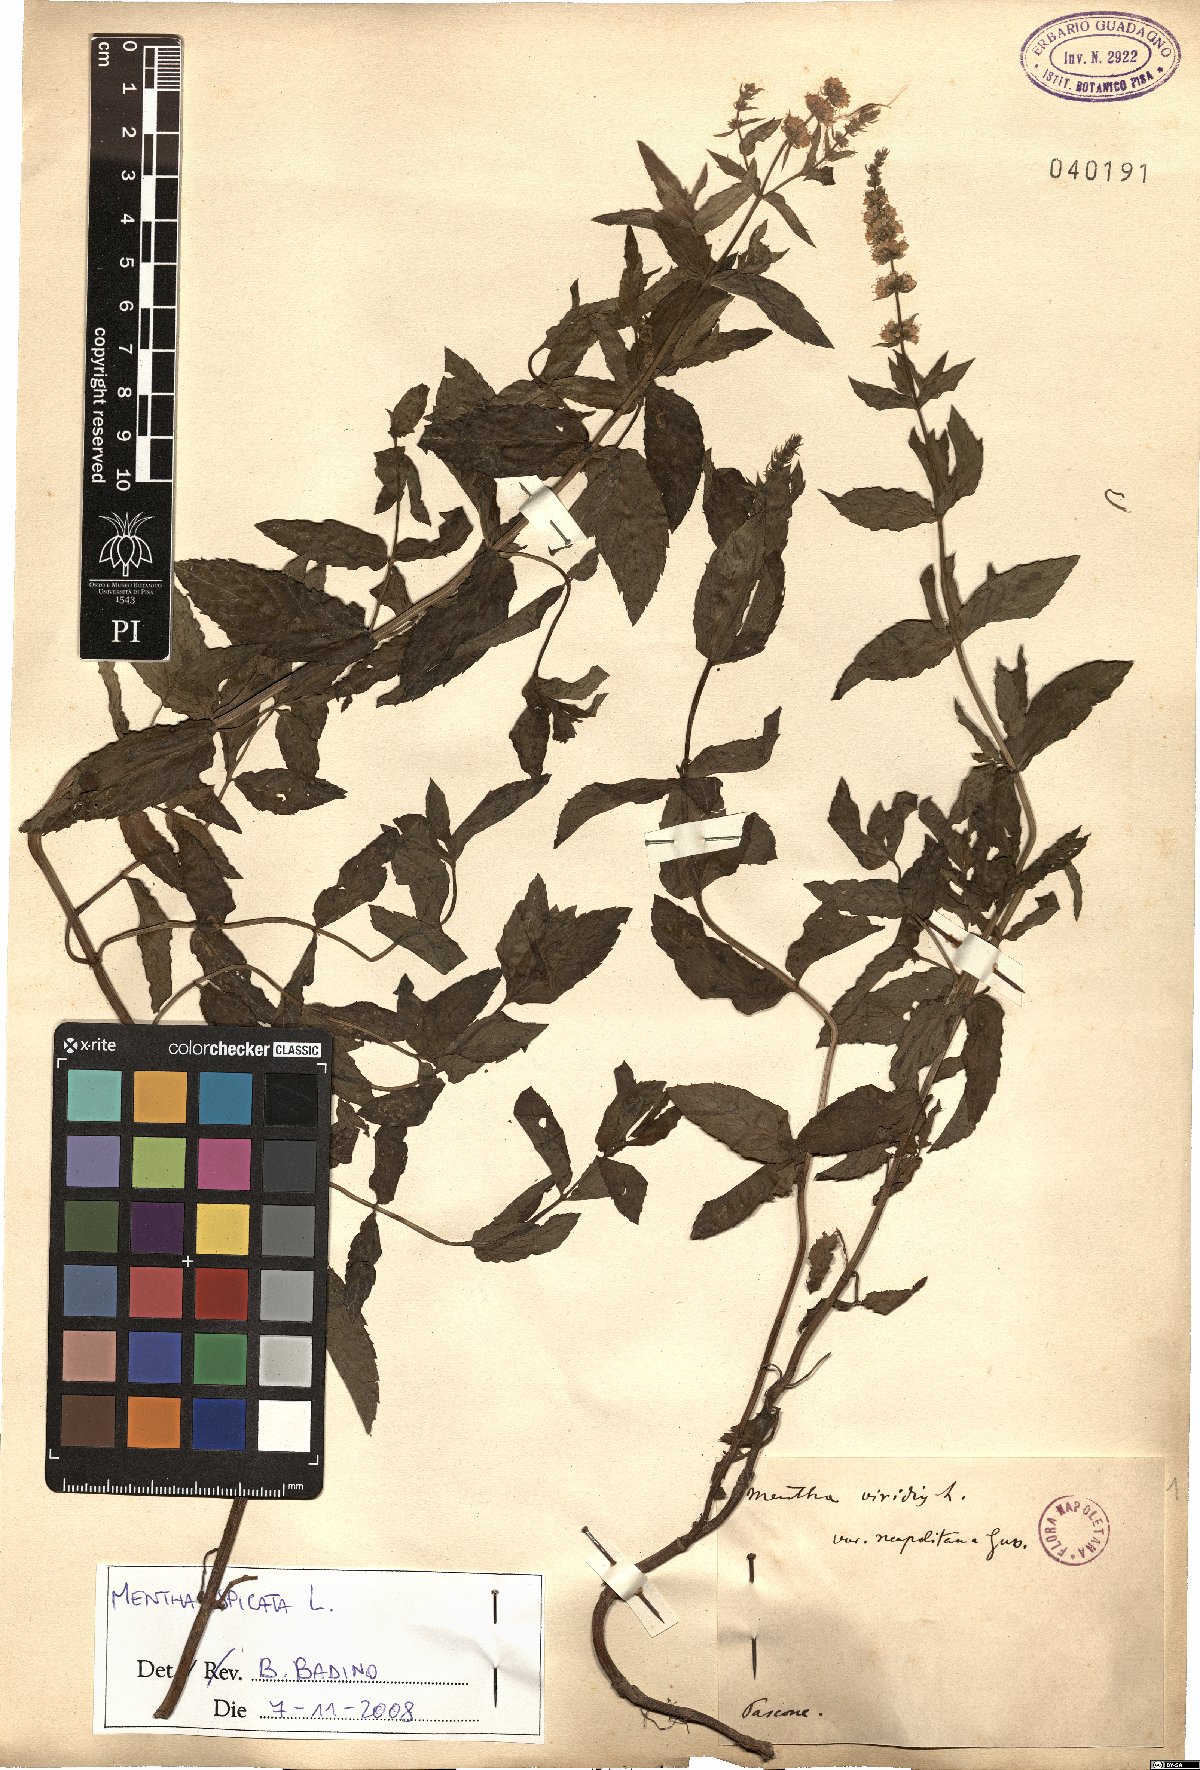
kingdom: Plantae
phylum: Tracheophyta
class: Magnoliopsida
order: Lamiales
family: Lamiaceae
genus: Mentha
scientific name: Mentha spicata
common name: Spearmint
